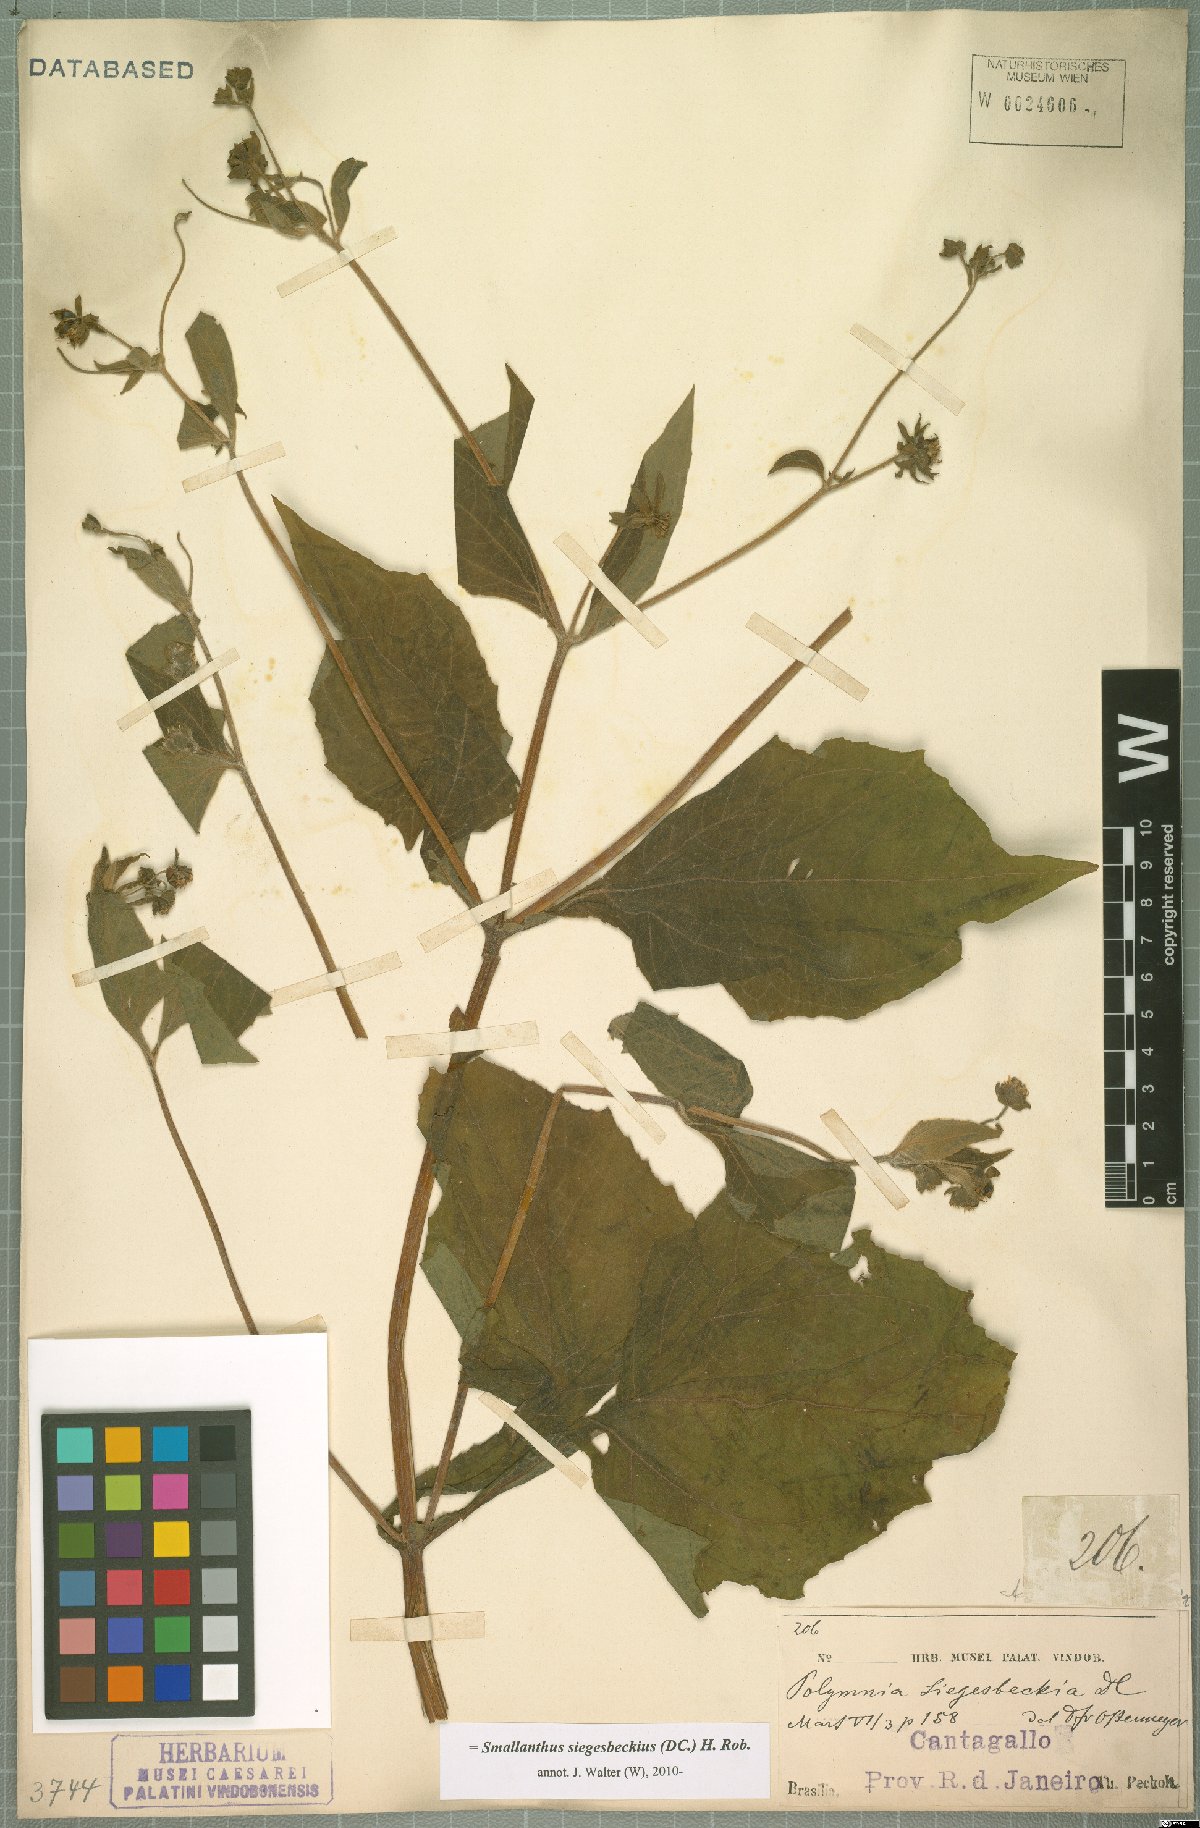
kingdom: Plantae
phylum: Tracheophyta
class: Magnoliopsida
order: Asterales
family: Asteraceae
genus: Smallanthus
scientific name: Smallanthus siegesbeckius
